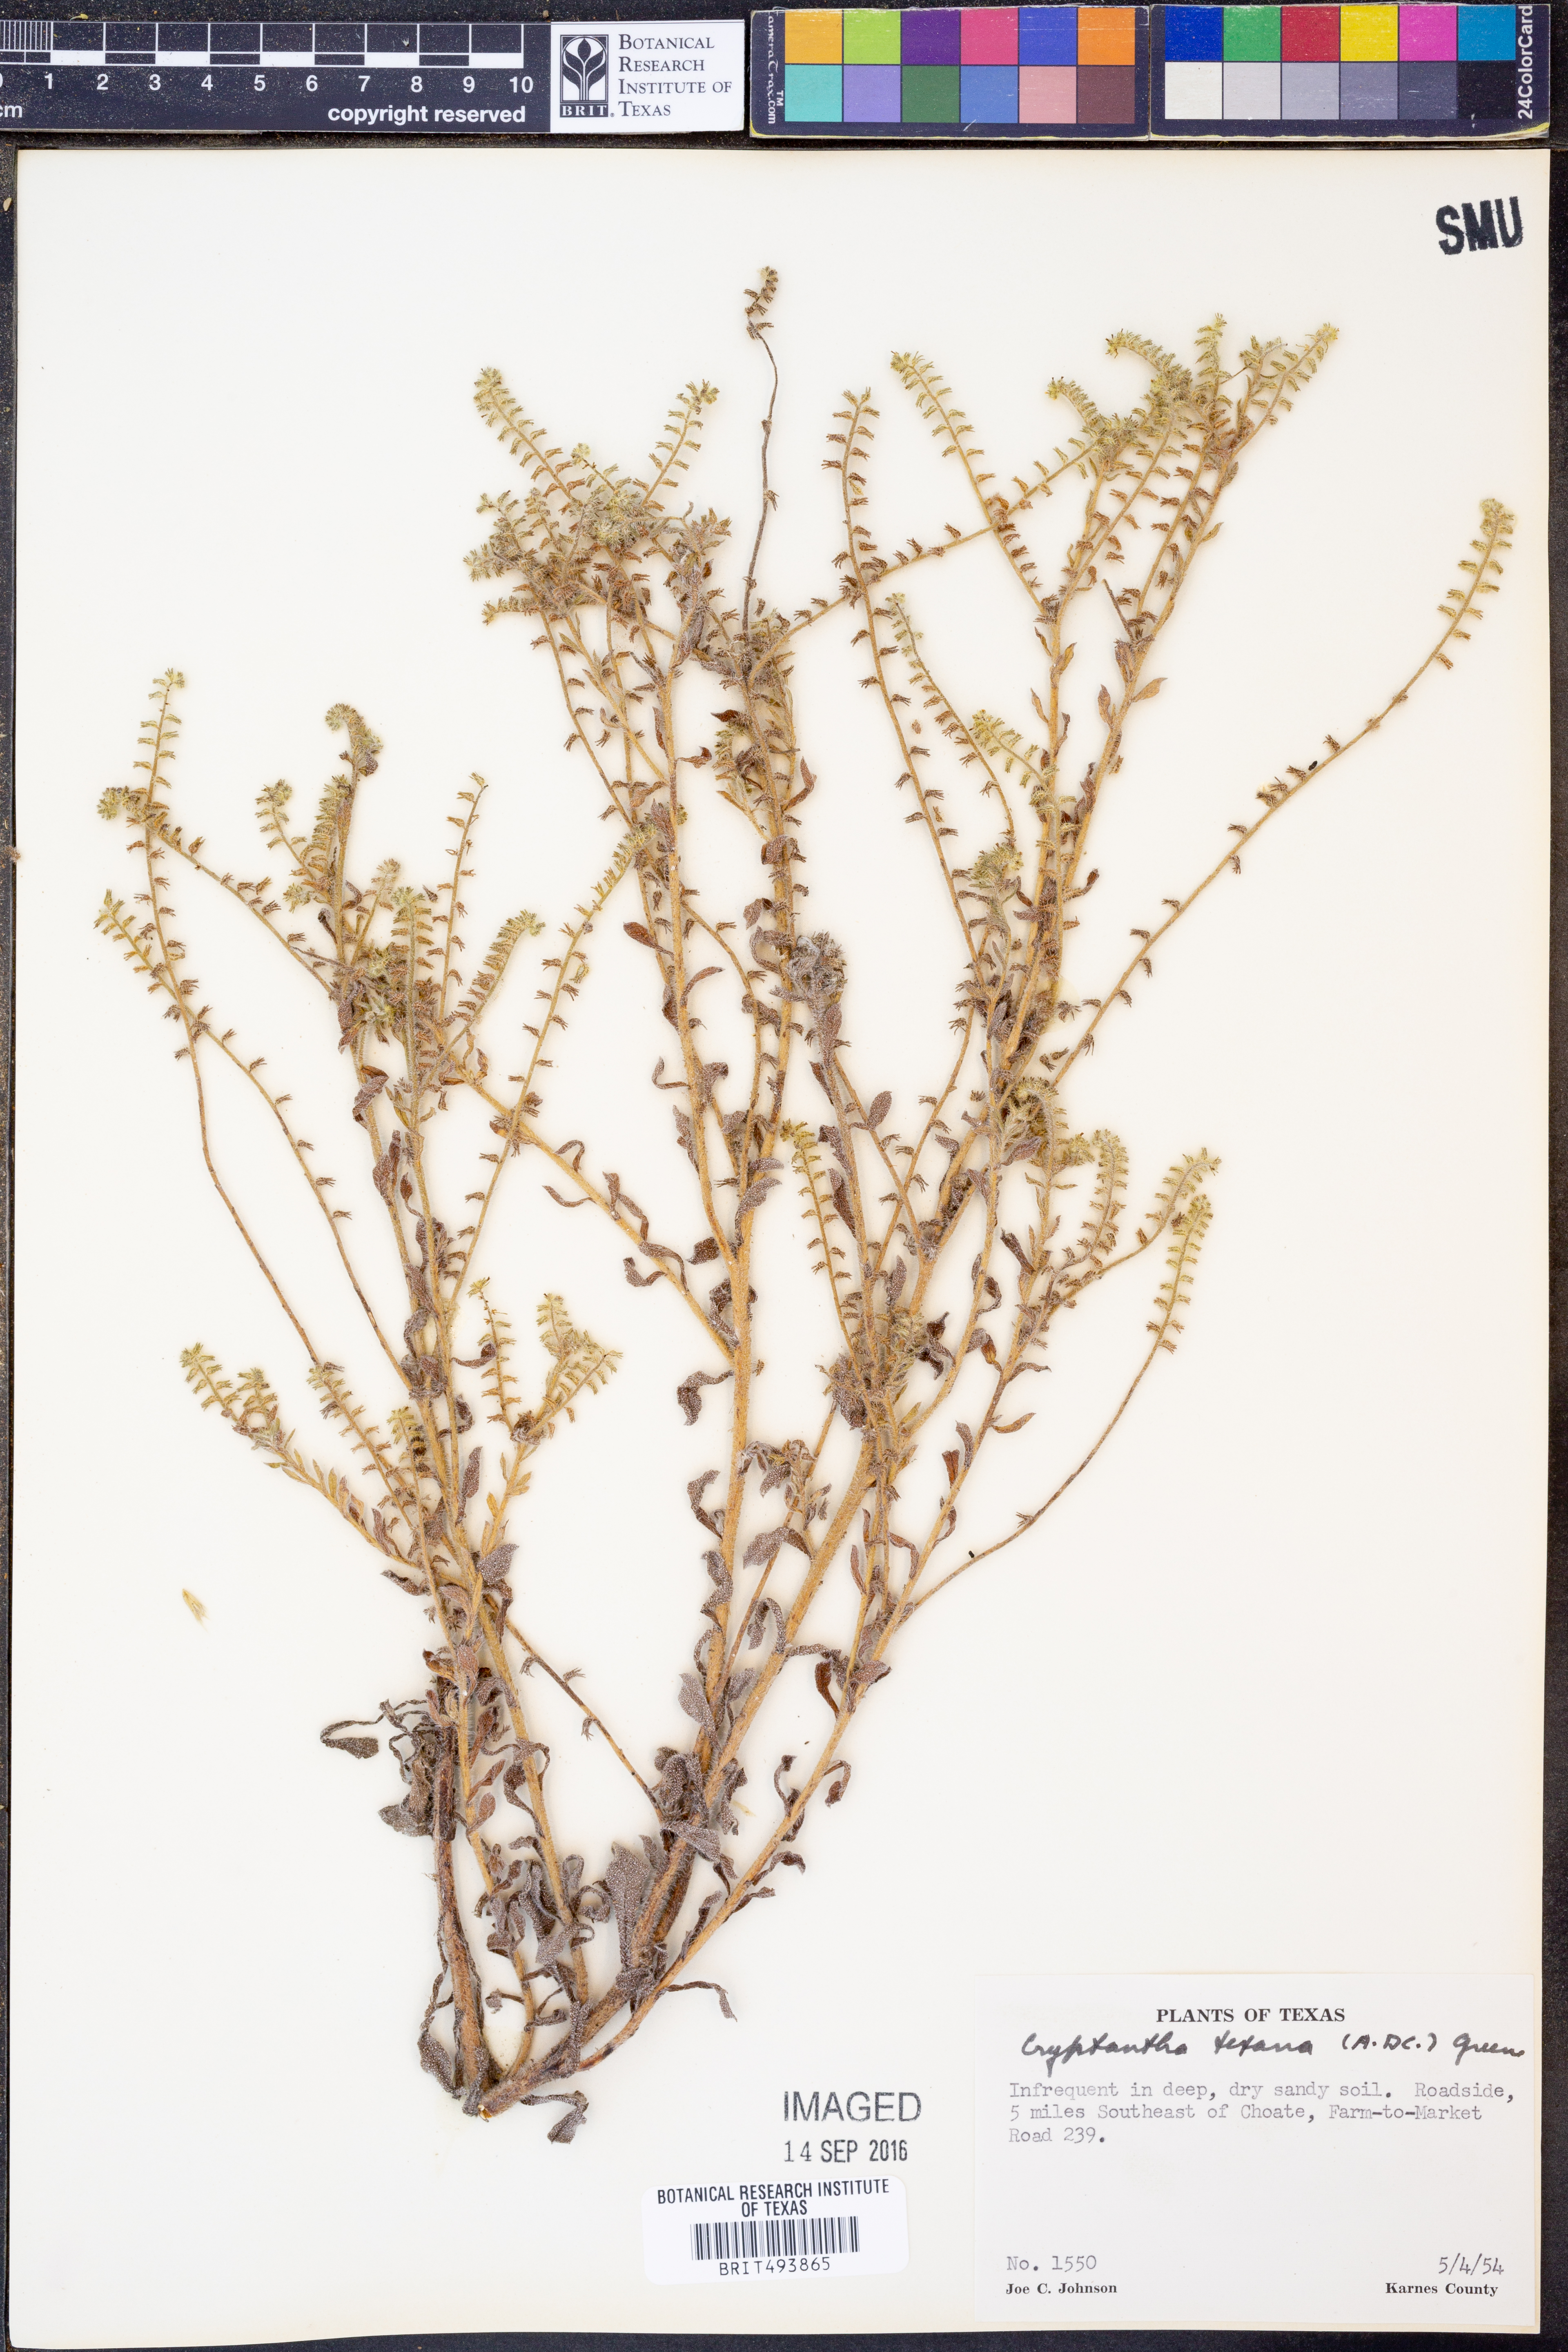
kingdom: Plantae
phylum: Tracheophyta
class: Magnoliopsida
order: Boraginales
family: Boraginaceae
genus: Cryptantha
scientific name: Cryptantha texana
